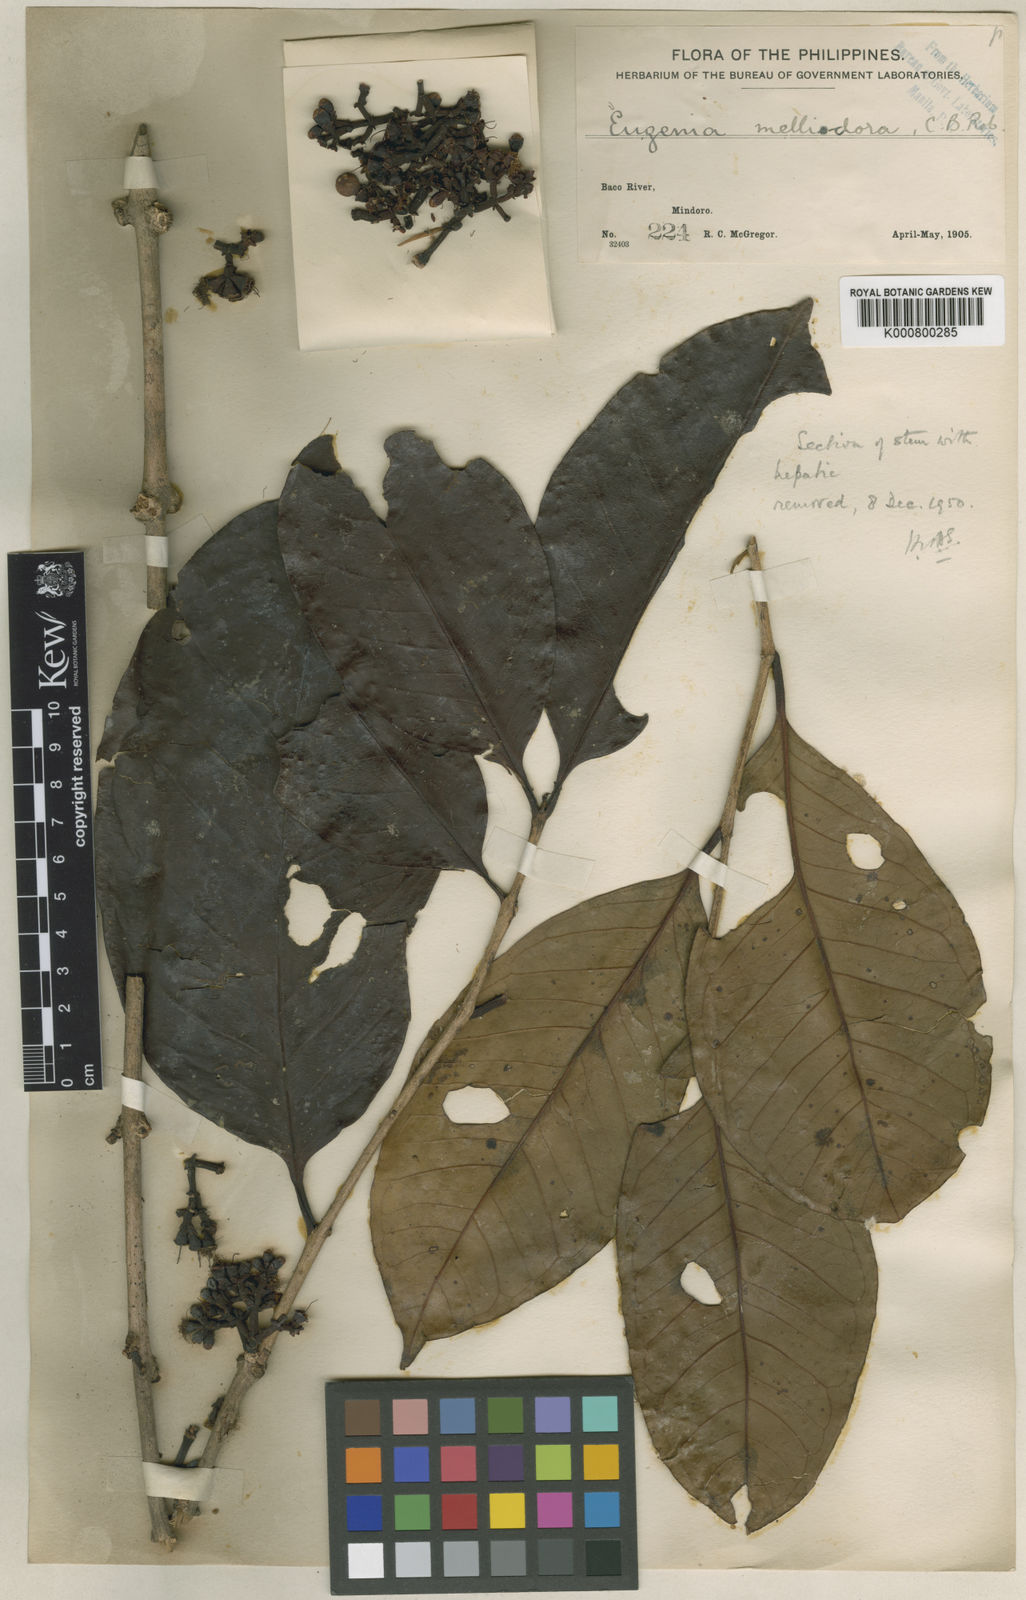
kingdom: Plantae
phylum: Tracheophyta
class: Magnoliopsida
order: Myrtales
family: Myrtaceae
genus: Syzygium
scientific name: Syzygium melliodorum
